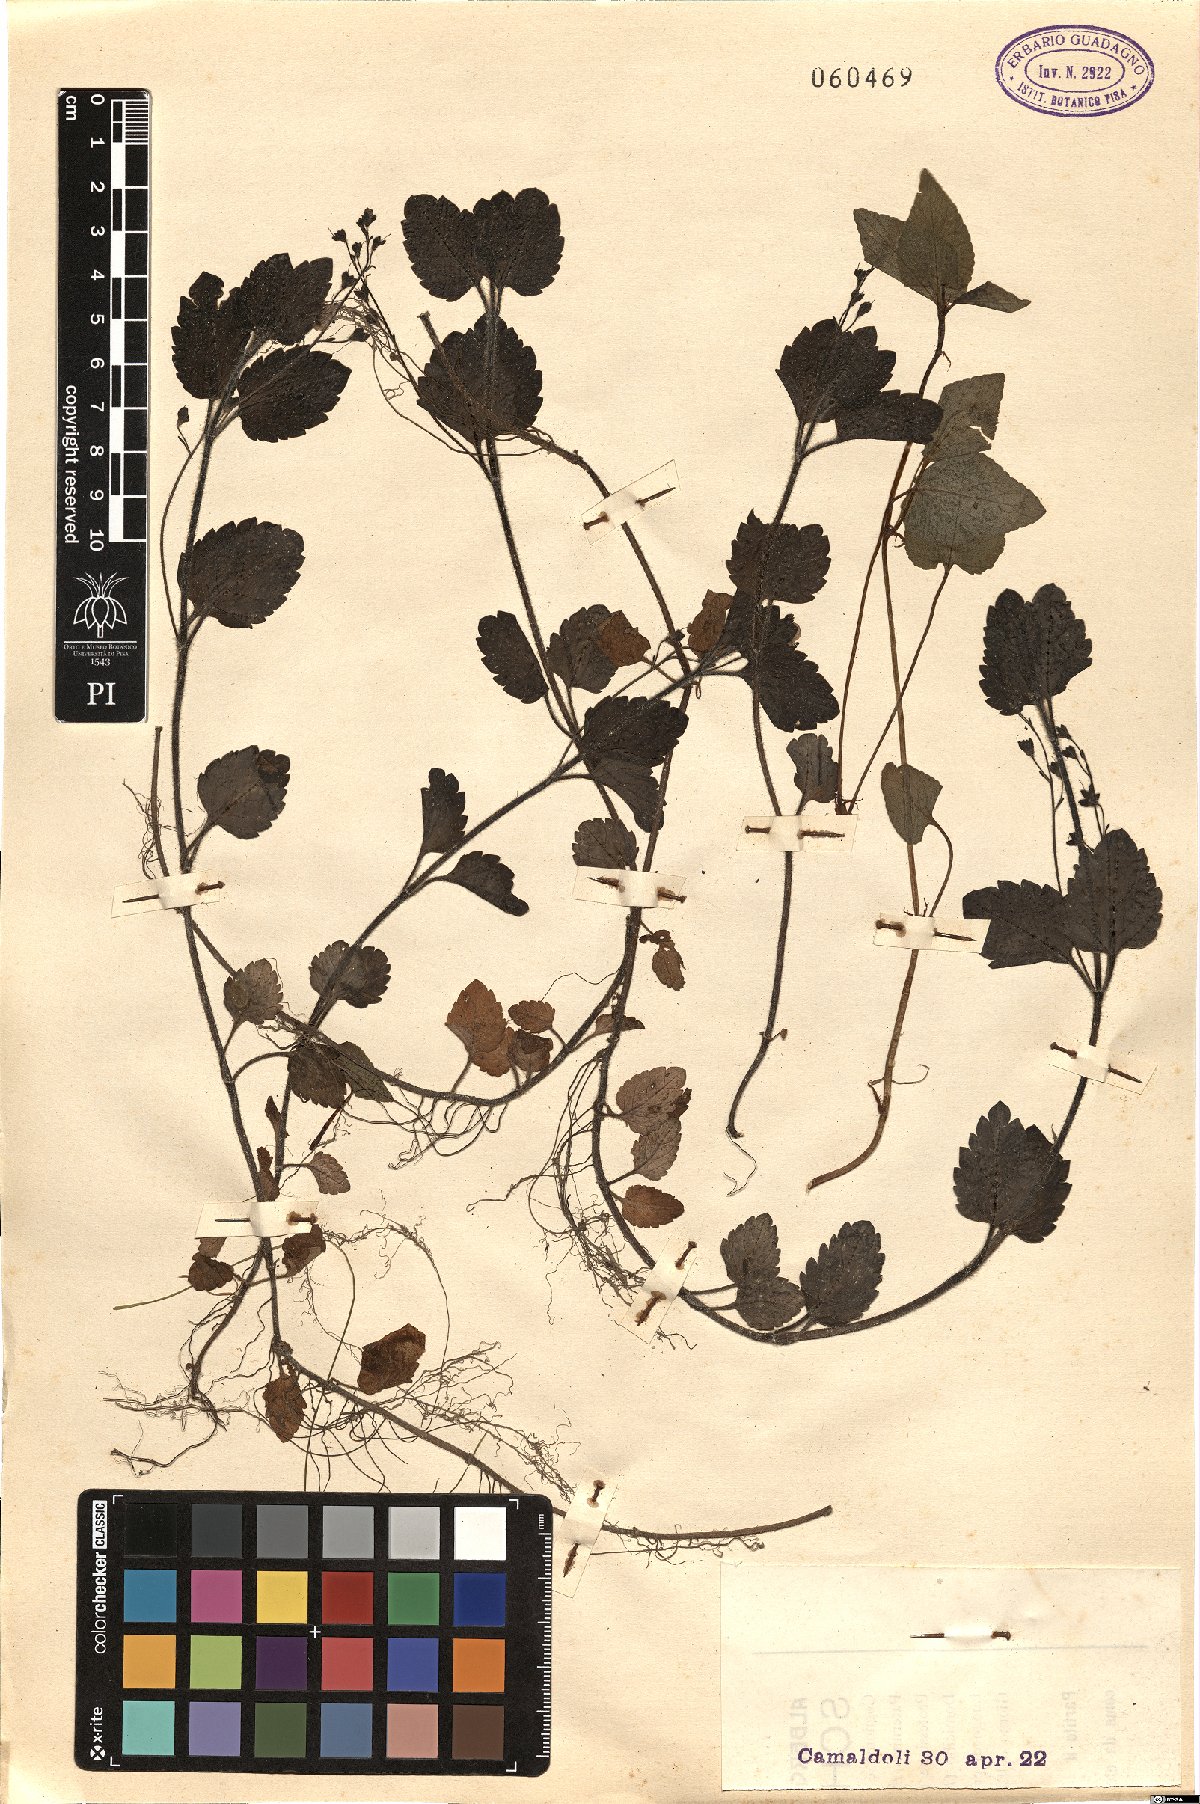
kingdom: Plantae
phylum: Tracheophyta
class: Magnoliopsida
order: Lamiales
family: Plantaginaceae
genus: Veronica
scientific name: Veronica montana
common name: Wood speedwell
